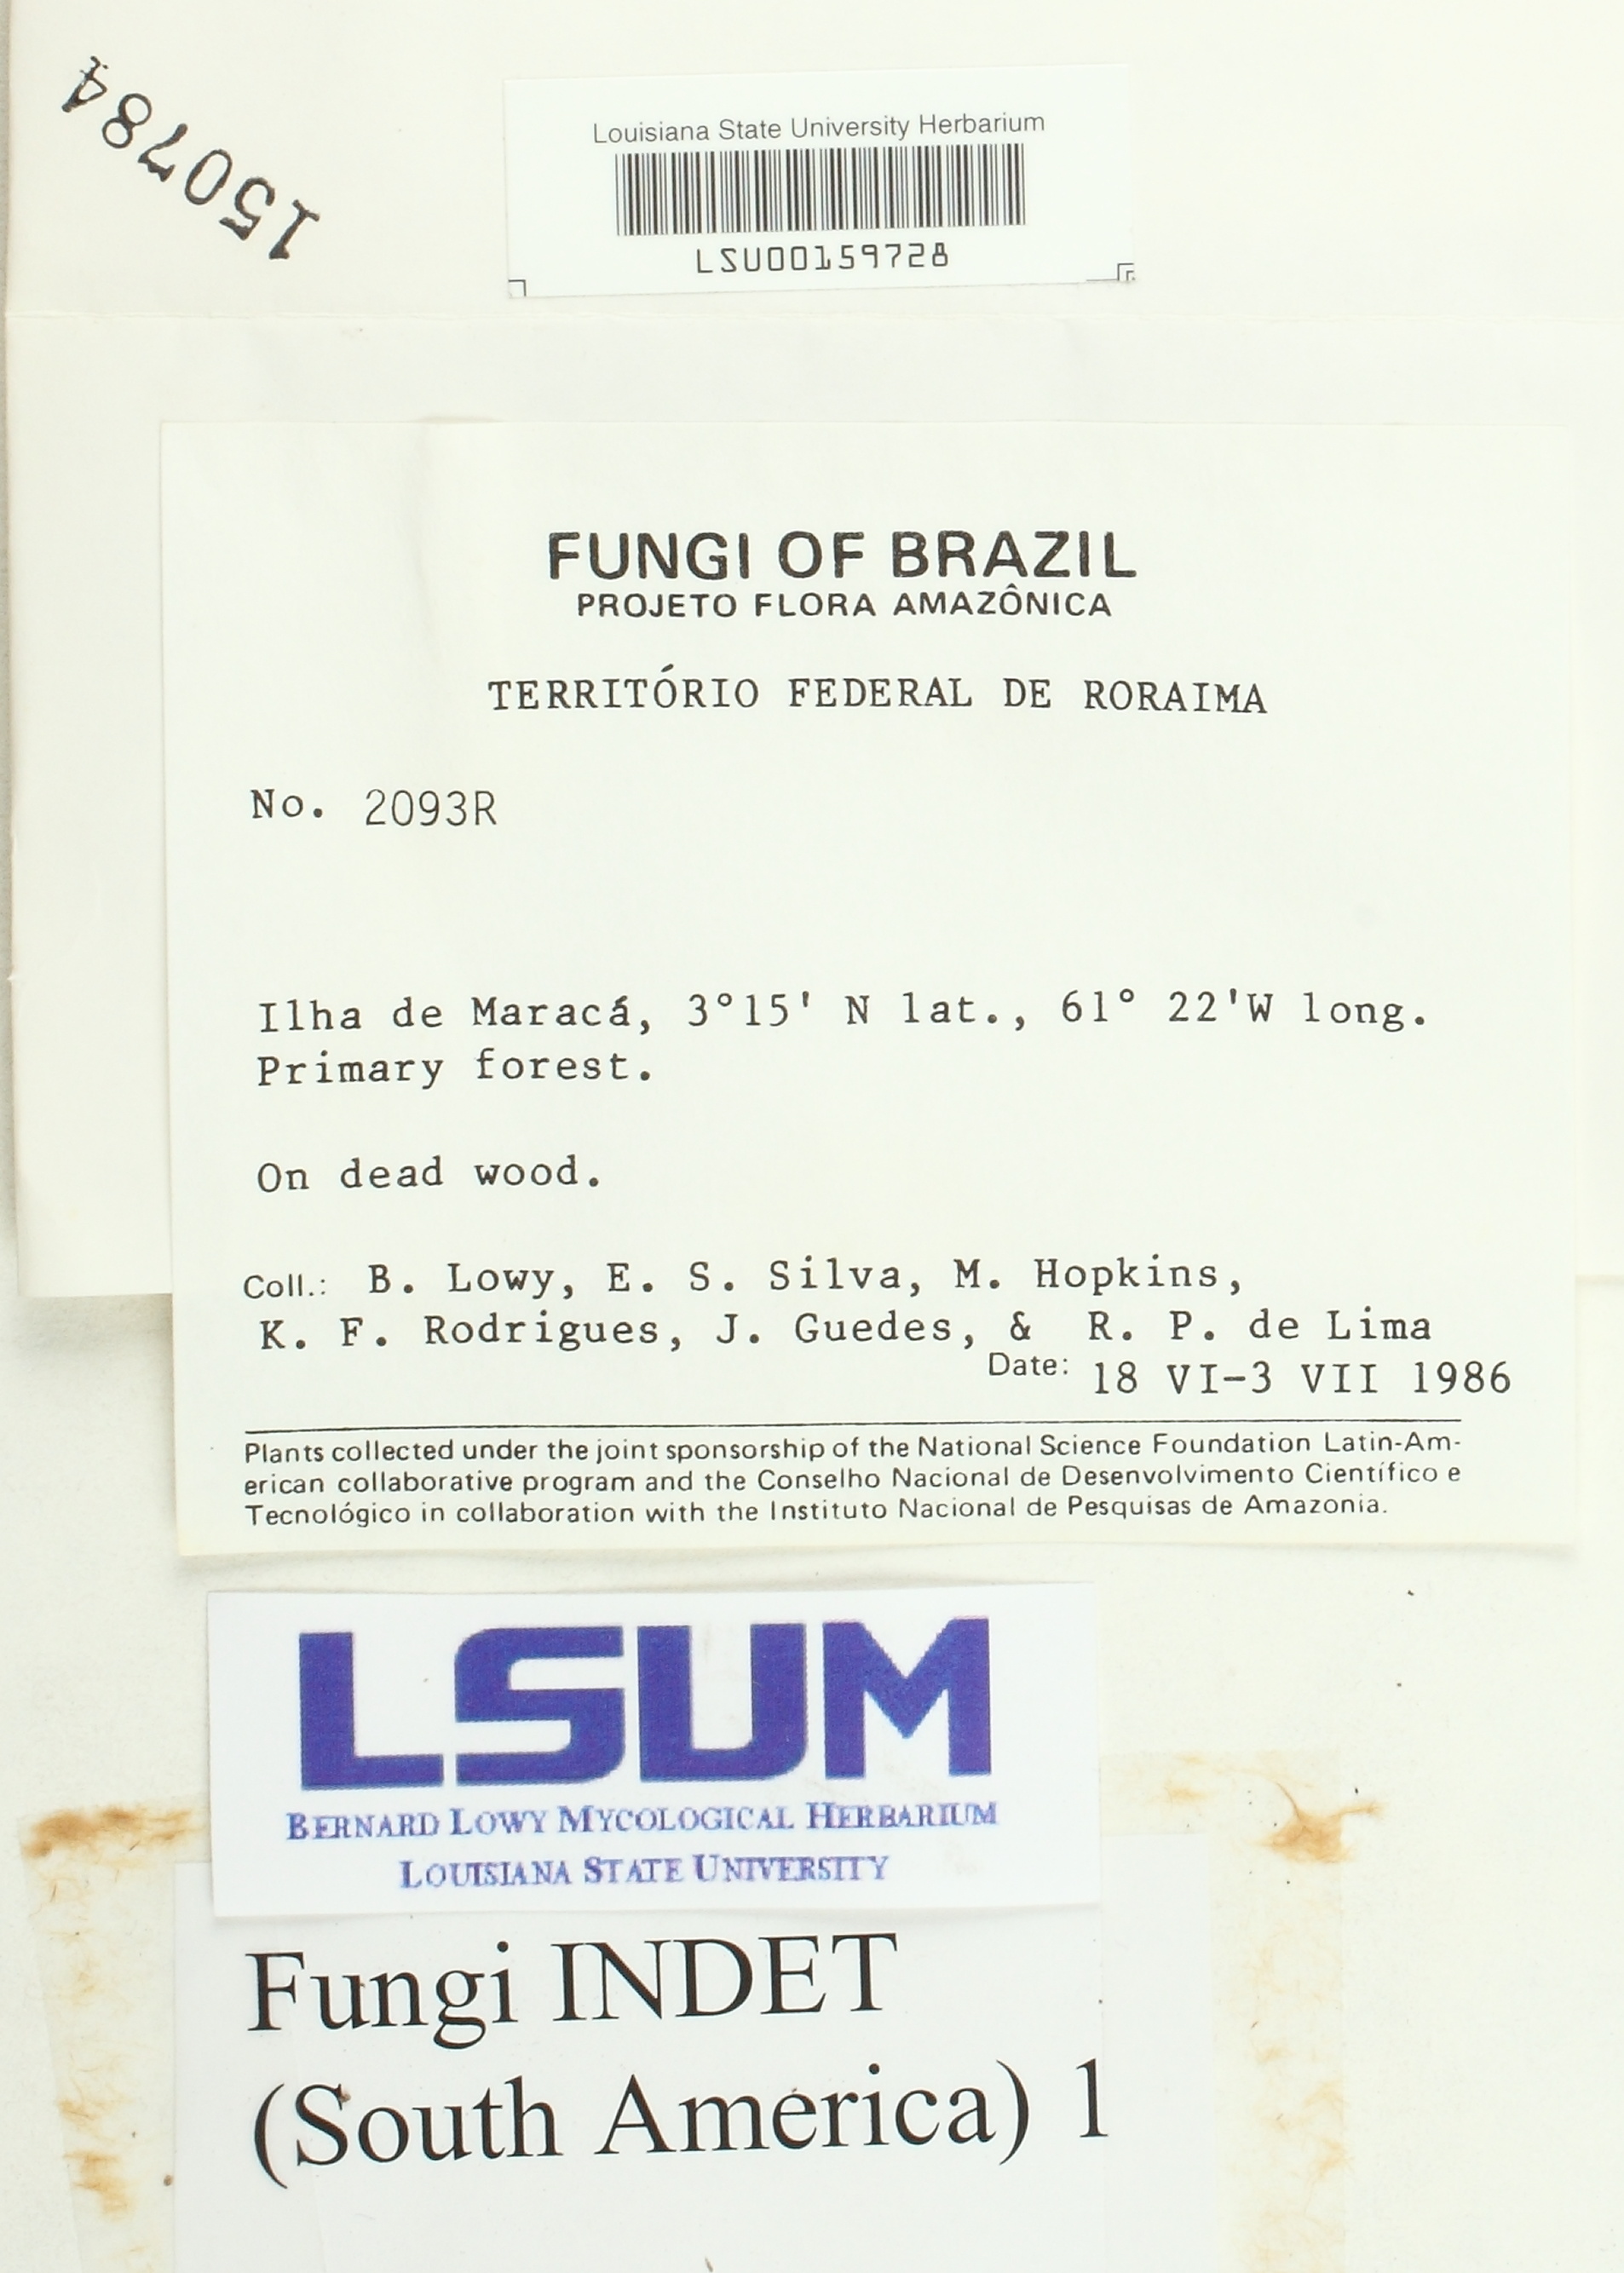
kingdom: Fungi
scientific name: Fungi
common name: Fungi
